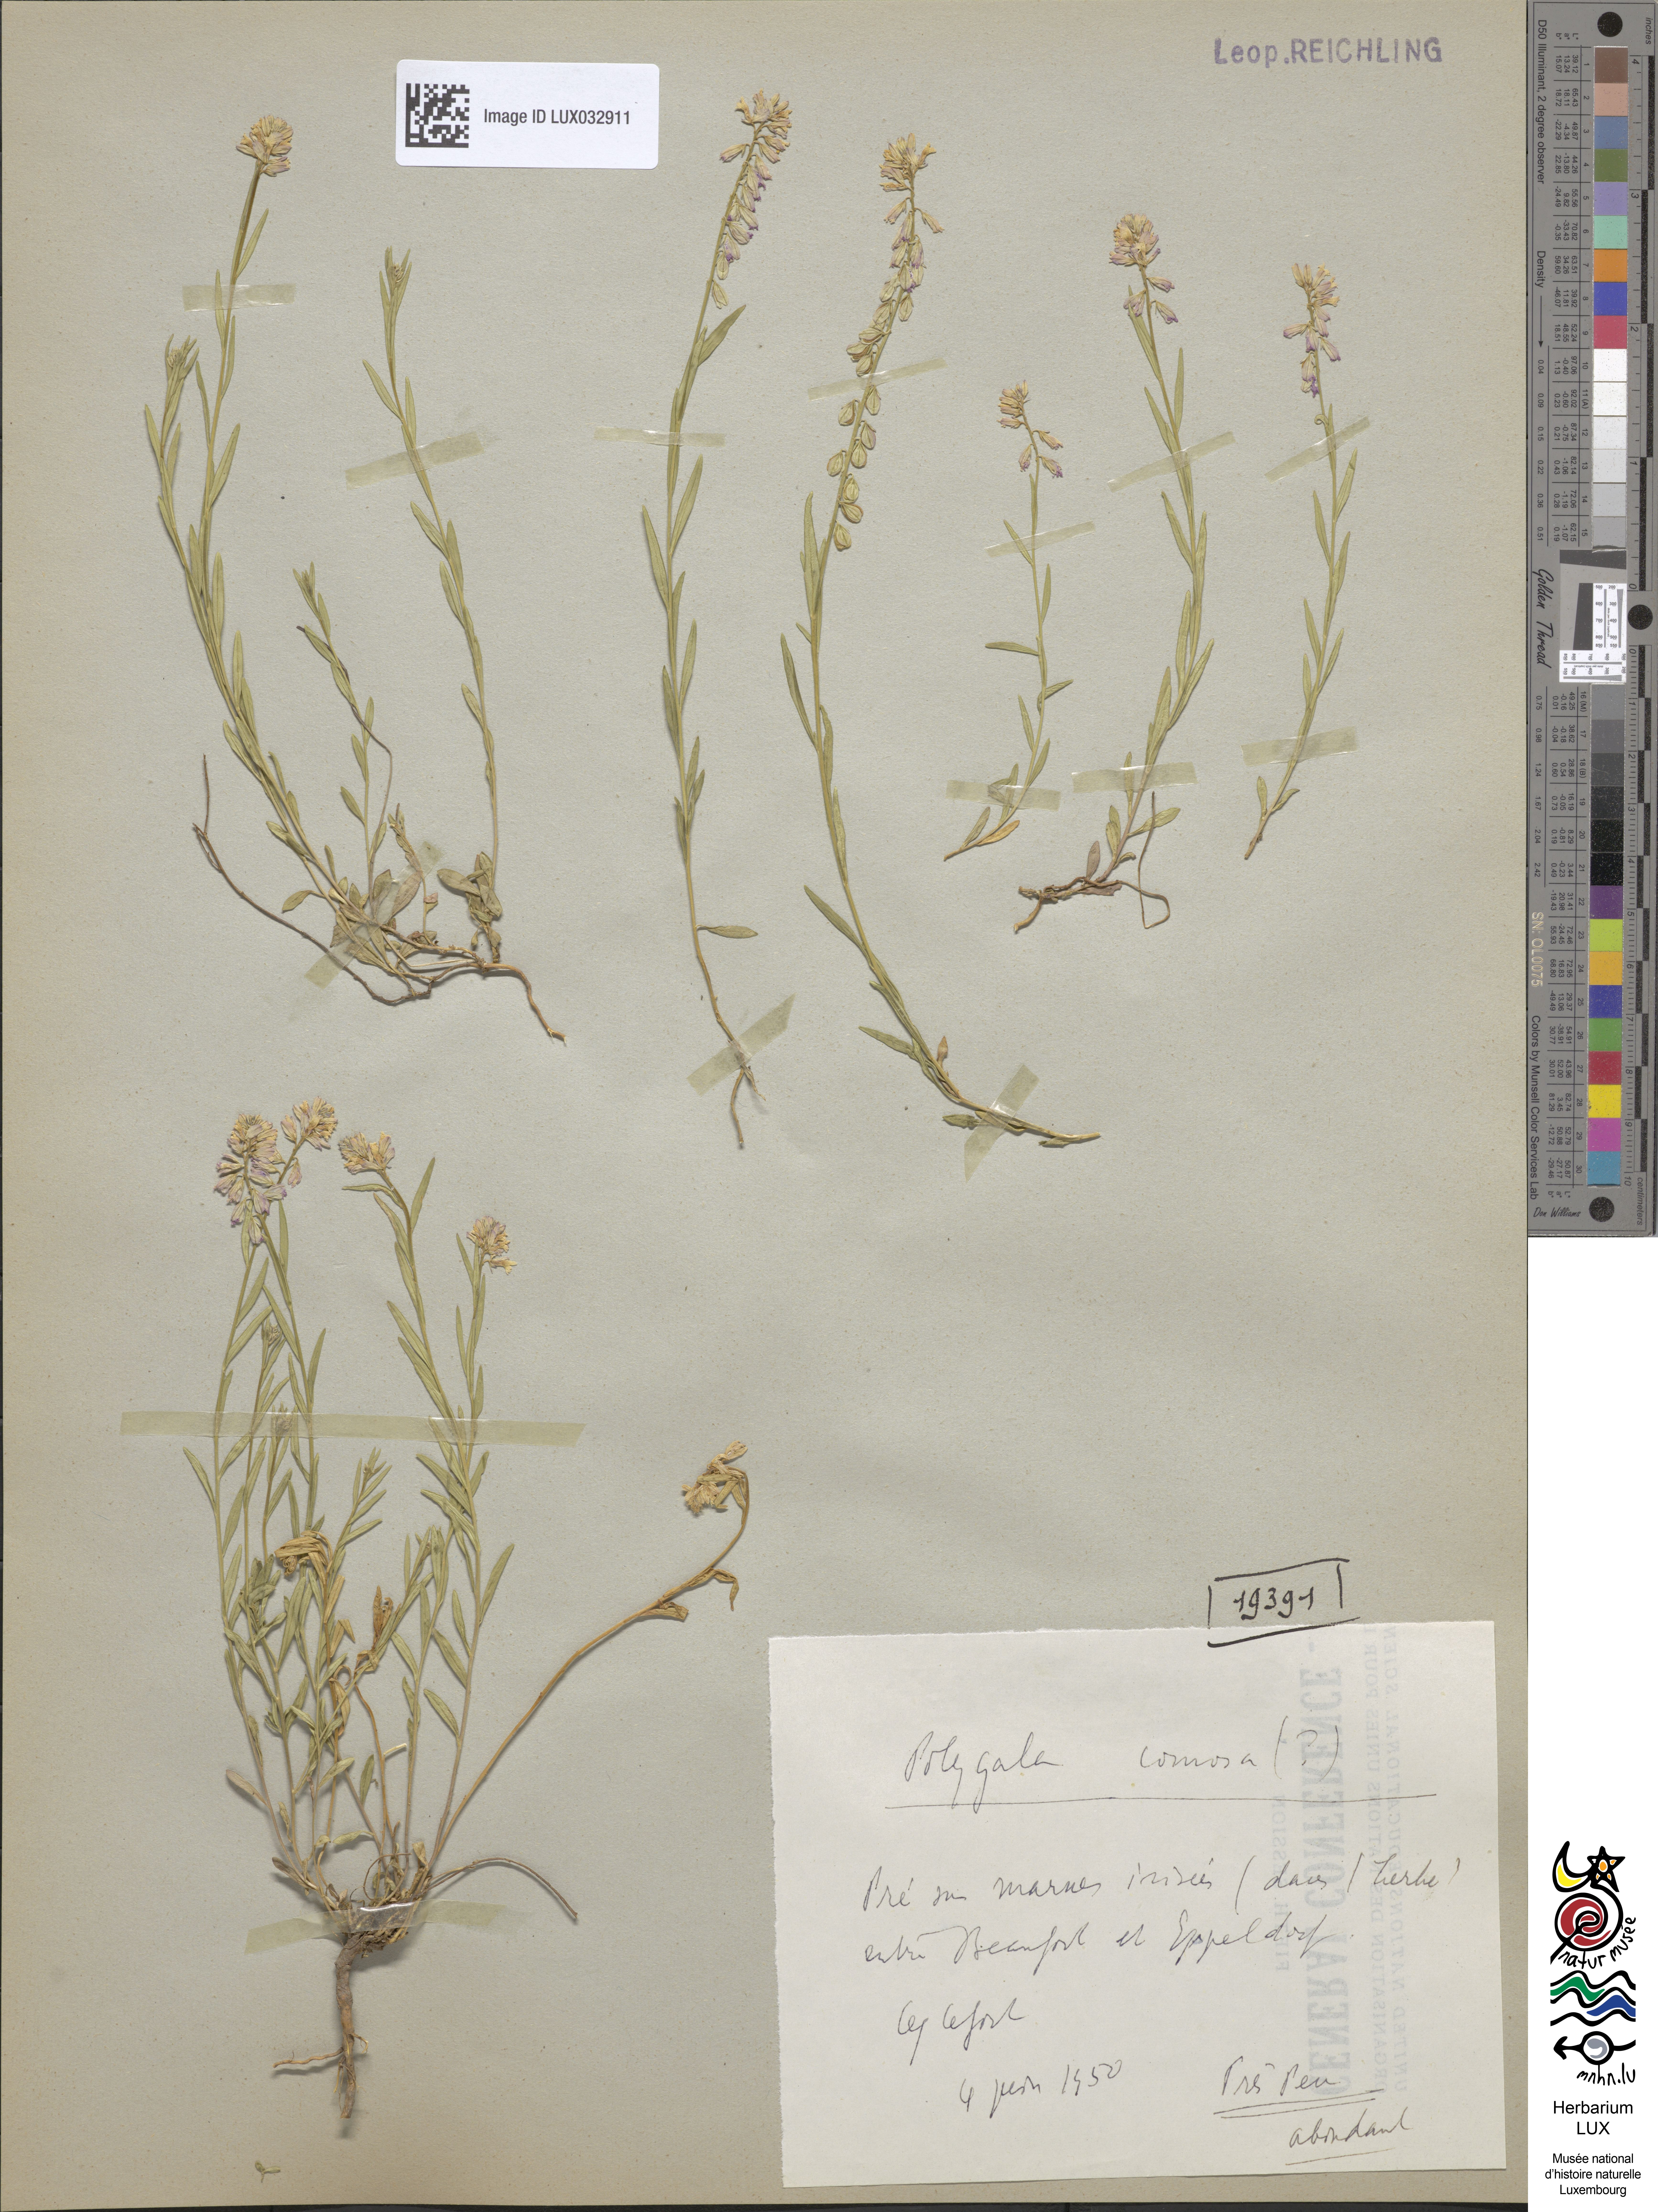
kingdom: Plantae
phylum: Tracheophyta
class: Magnoliopsida
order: Fabales
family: Polygalaceae
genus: Polygala
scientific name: Polygala comosa
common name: Tufted milkwort
